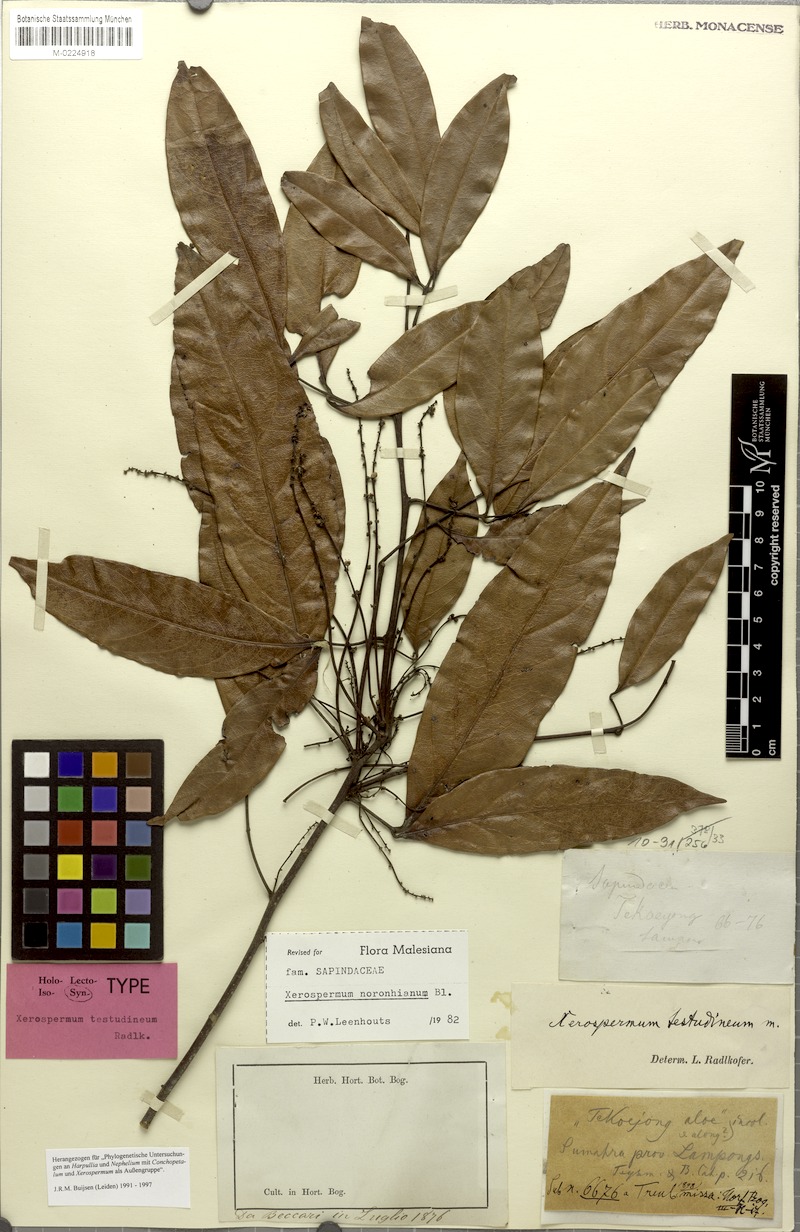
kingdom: Plantae
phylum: Tracheophyta
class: Magnoliopsida
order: Sapindales
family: Sapindaceae
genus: Xerospermum
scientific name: Xerospermum noronhianum
